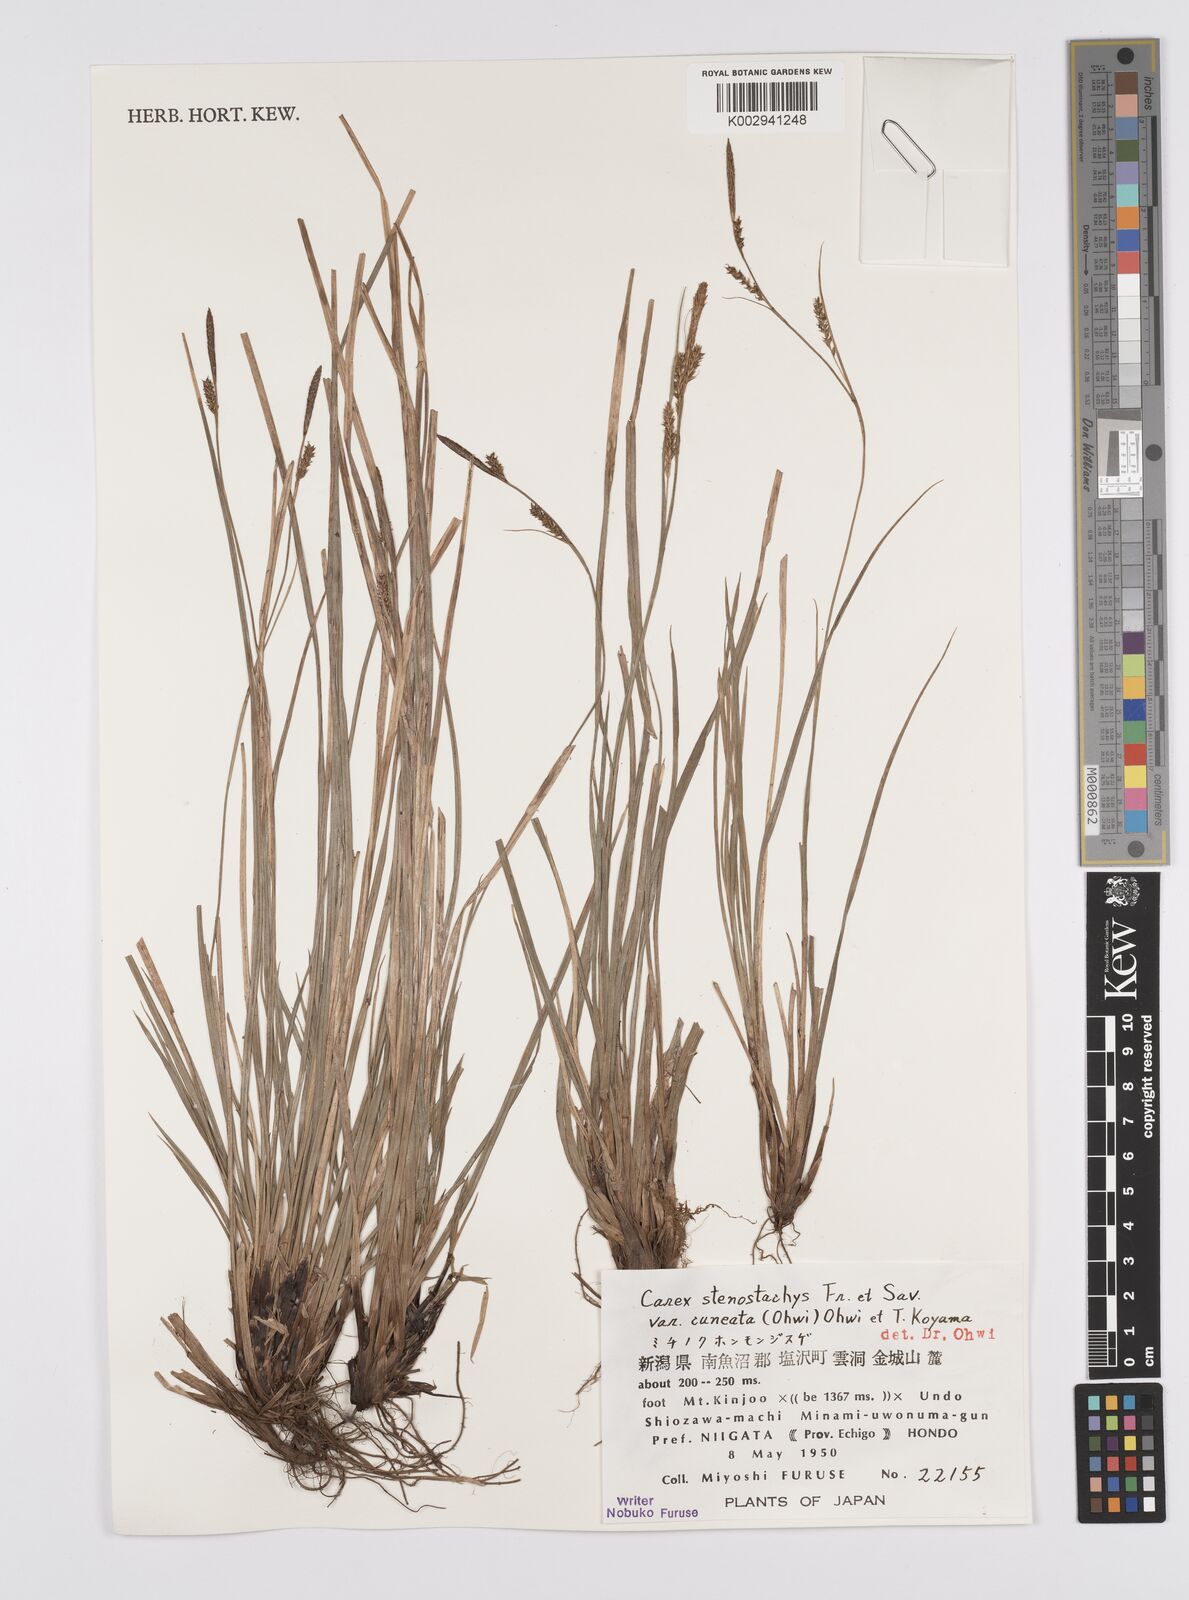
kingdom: Plantae
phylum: Tracheophyta
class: Liliopsida
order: Poales
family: Cyperaceae
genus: Carex
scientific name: Carex pisiformis
